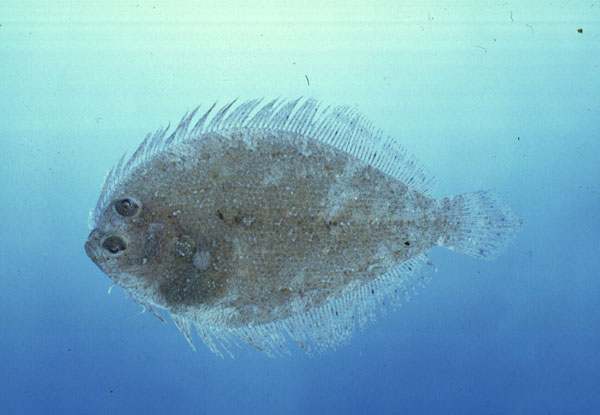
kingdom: Animalia
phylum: Chordata
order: Pleuronectiformes
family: Bothidae
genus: Crossorhombus
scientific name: Crossorhombus valderostratus
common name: Broadbrow flounder
